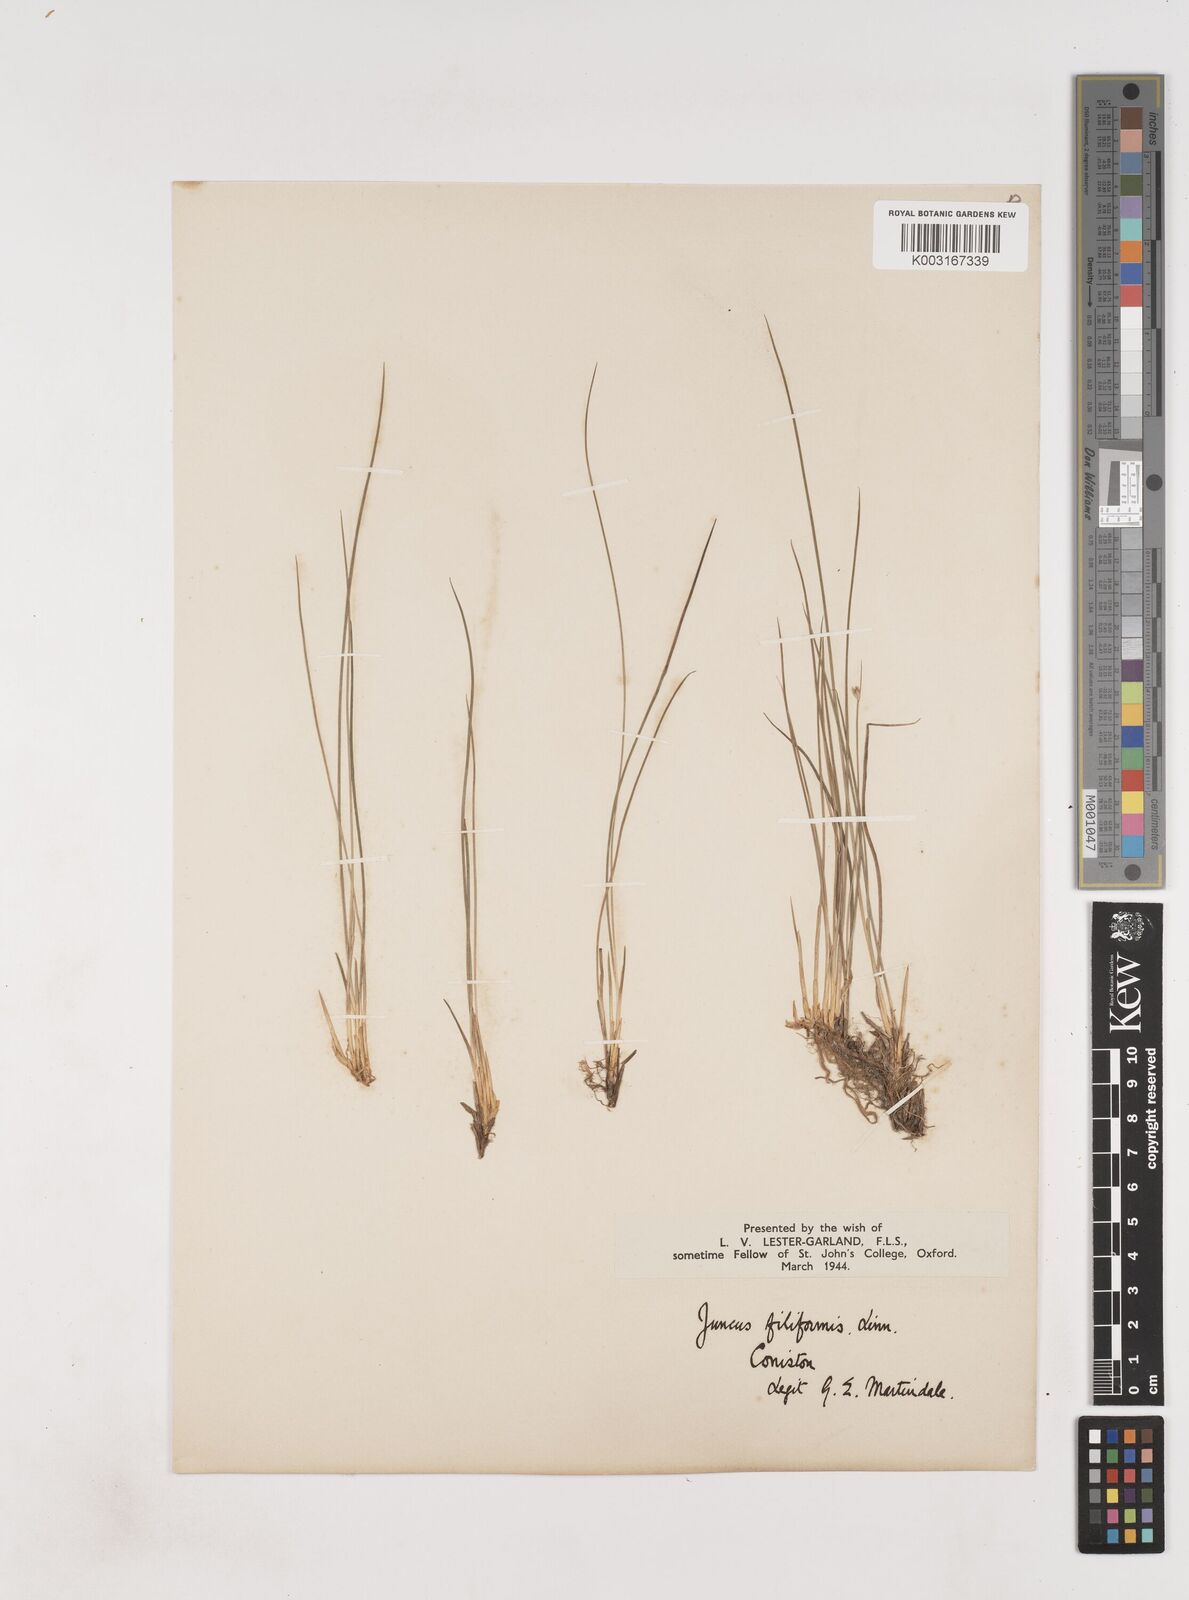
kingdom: Plantae
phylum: Tracheophyta
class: Liliopsida
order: Poales
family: Juncaceae
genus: Juncus
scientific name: Juncus filiformis
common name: Thread rush
